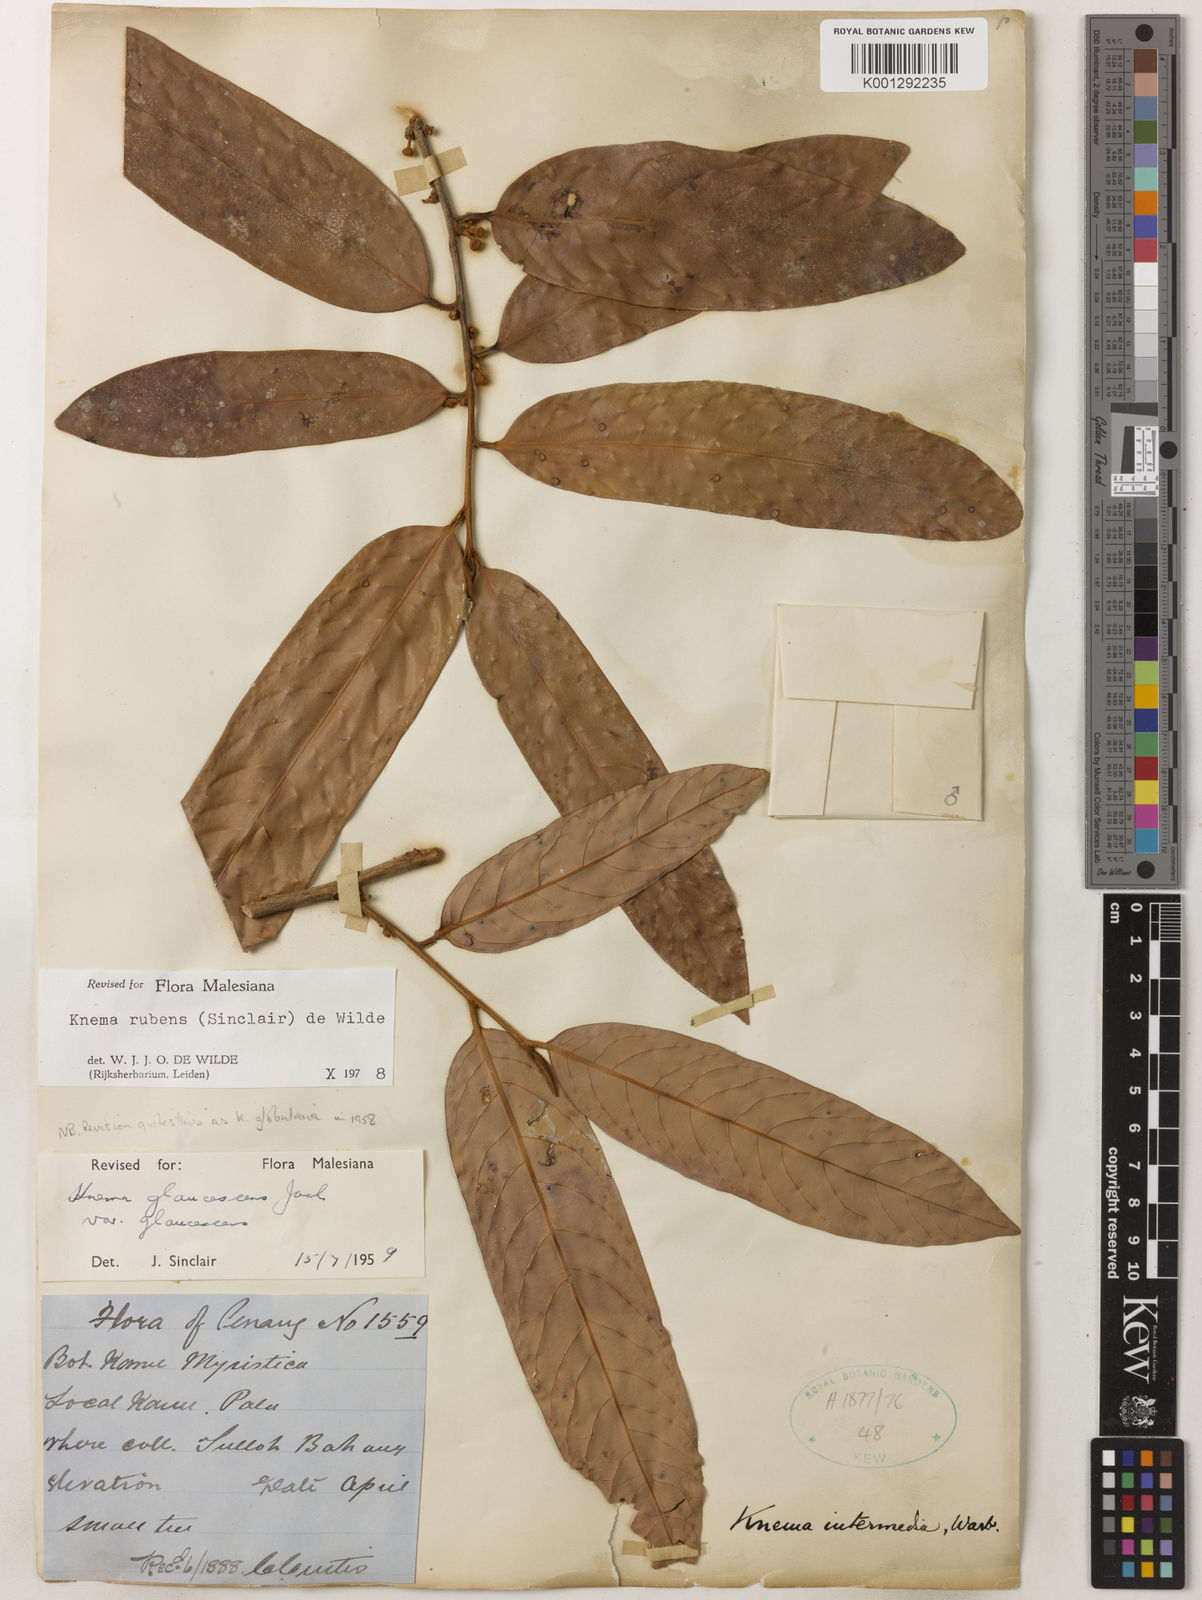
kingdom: Plantae
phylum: Tracheophyta
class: Magnoliopsida
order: Magnoliales
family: Myristicaceae
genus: Knema
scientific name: Knema rubens
